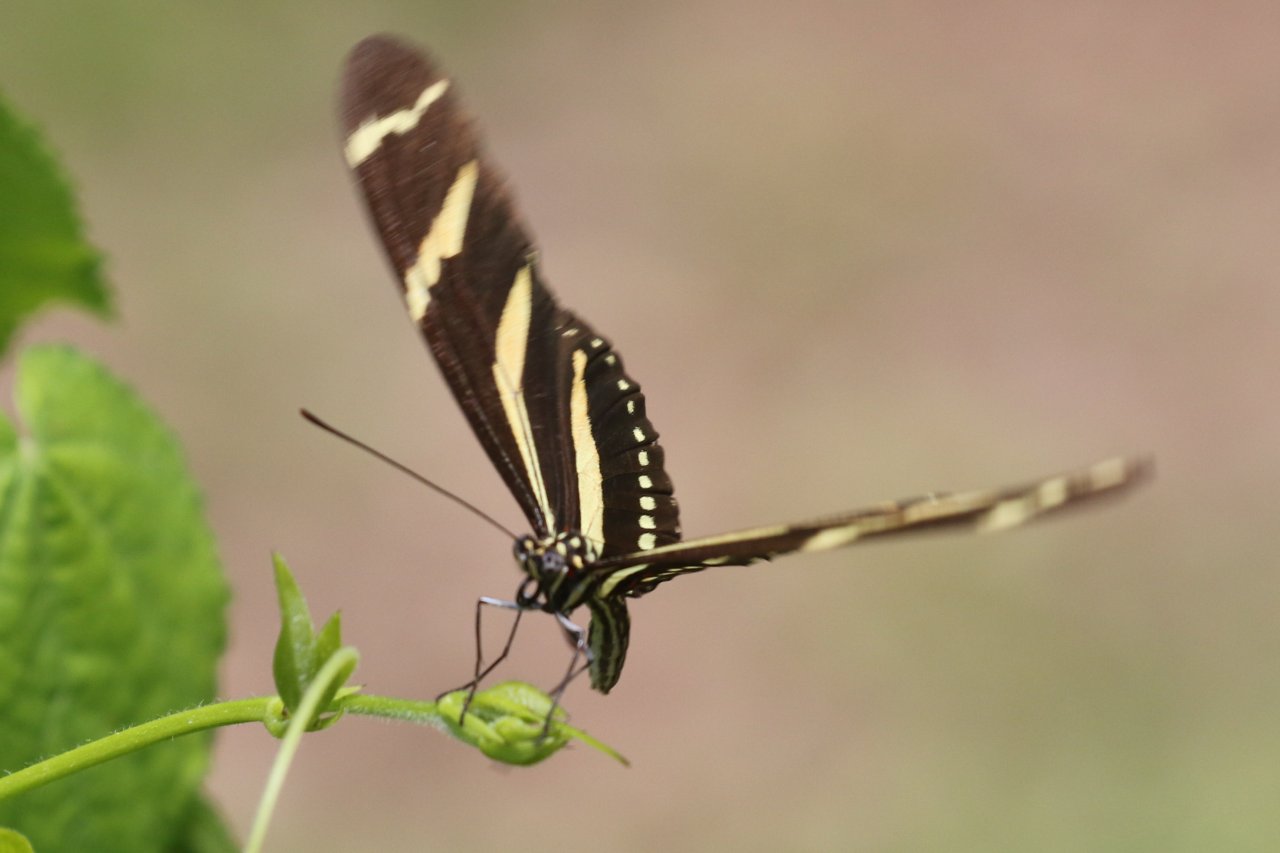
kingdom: Animalia
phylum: Arthropoda
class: Insecta
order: Lepidoptera
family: Nymphalidae
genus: Heliconius
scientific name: Heliconius charithonia
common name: Zebra Longwing
